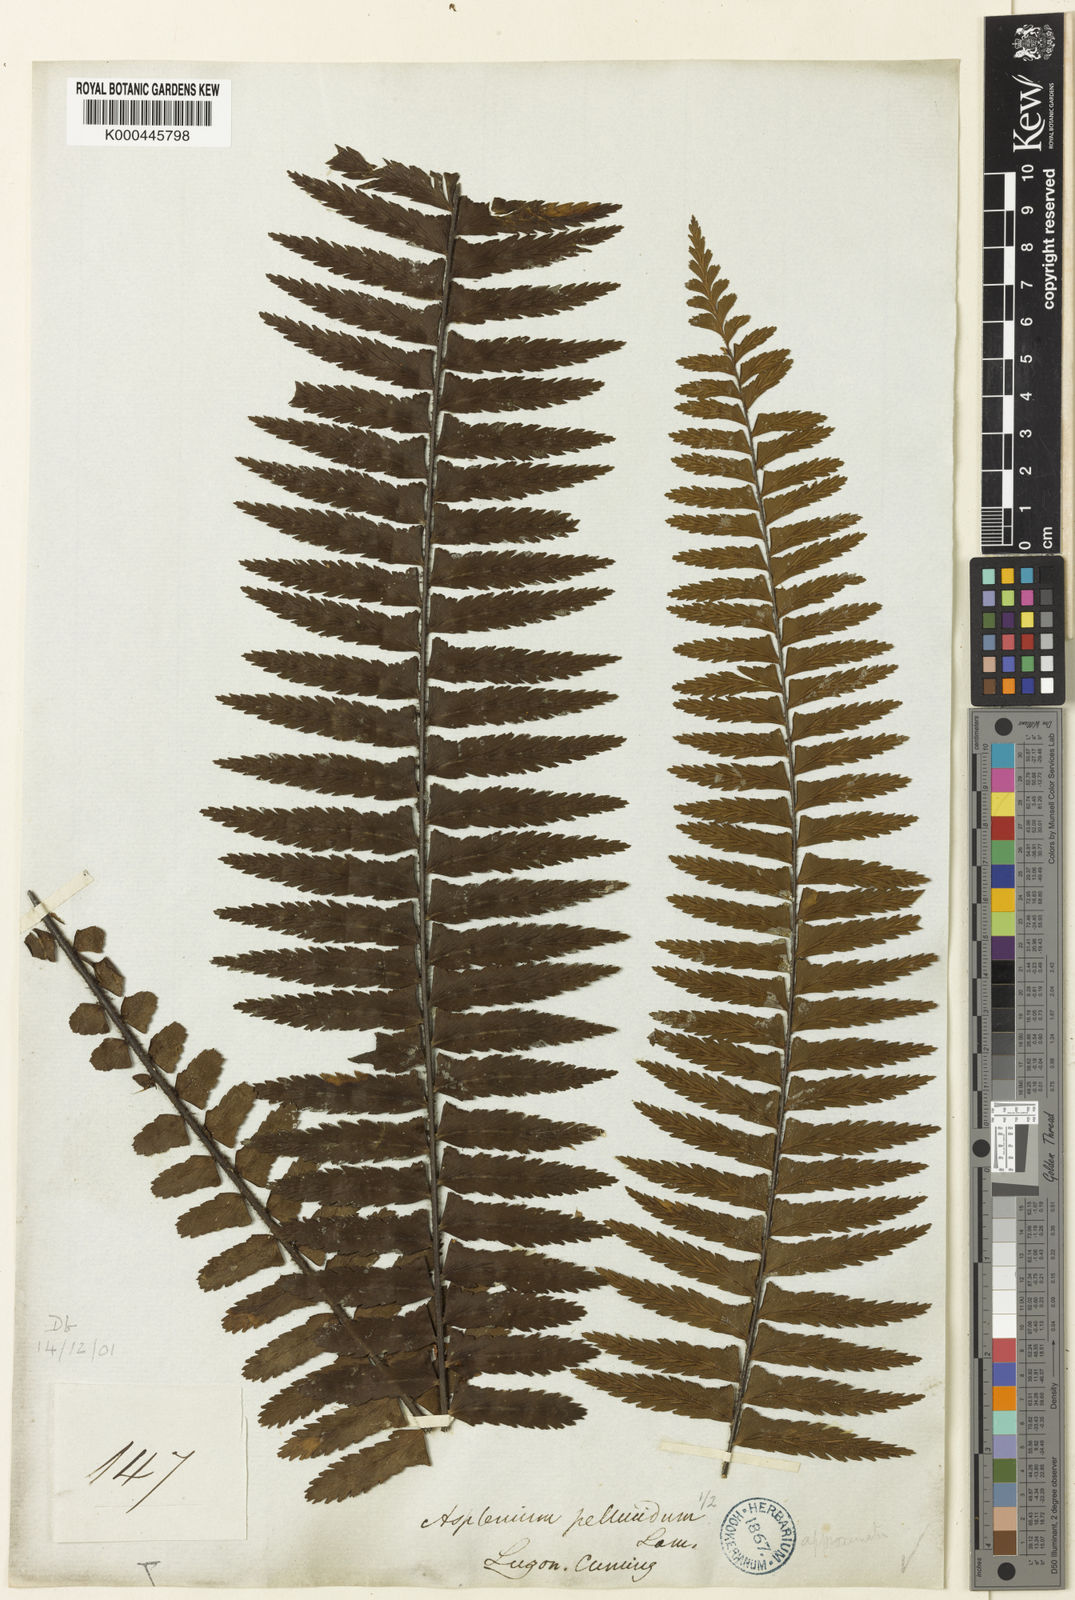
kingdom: Plantae
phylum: Tracheophyta
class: Polypodiopsida
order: Polypodiales
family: Aspleniaceae
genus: Asplenium
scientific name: Asplenium pellucidum
